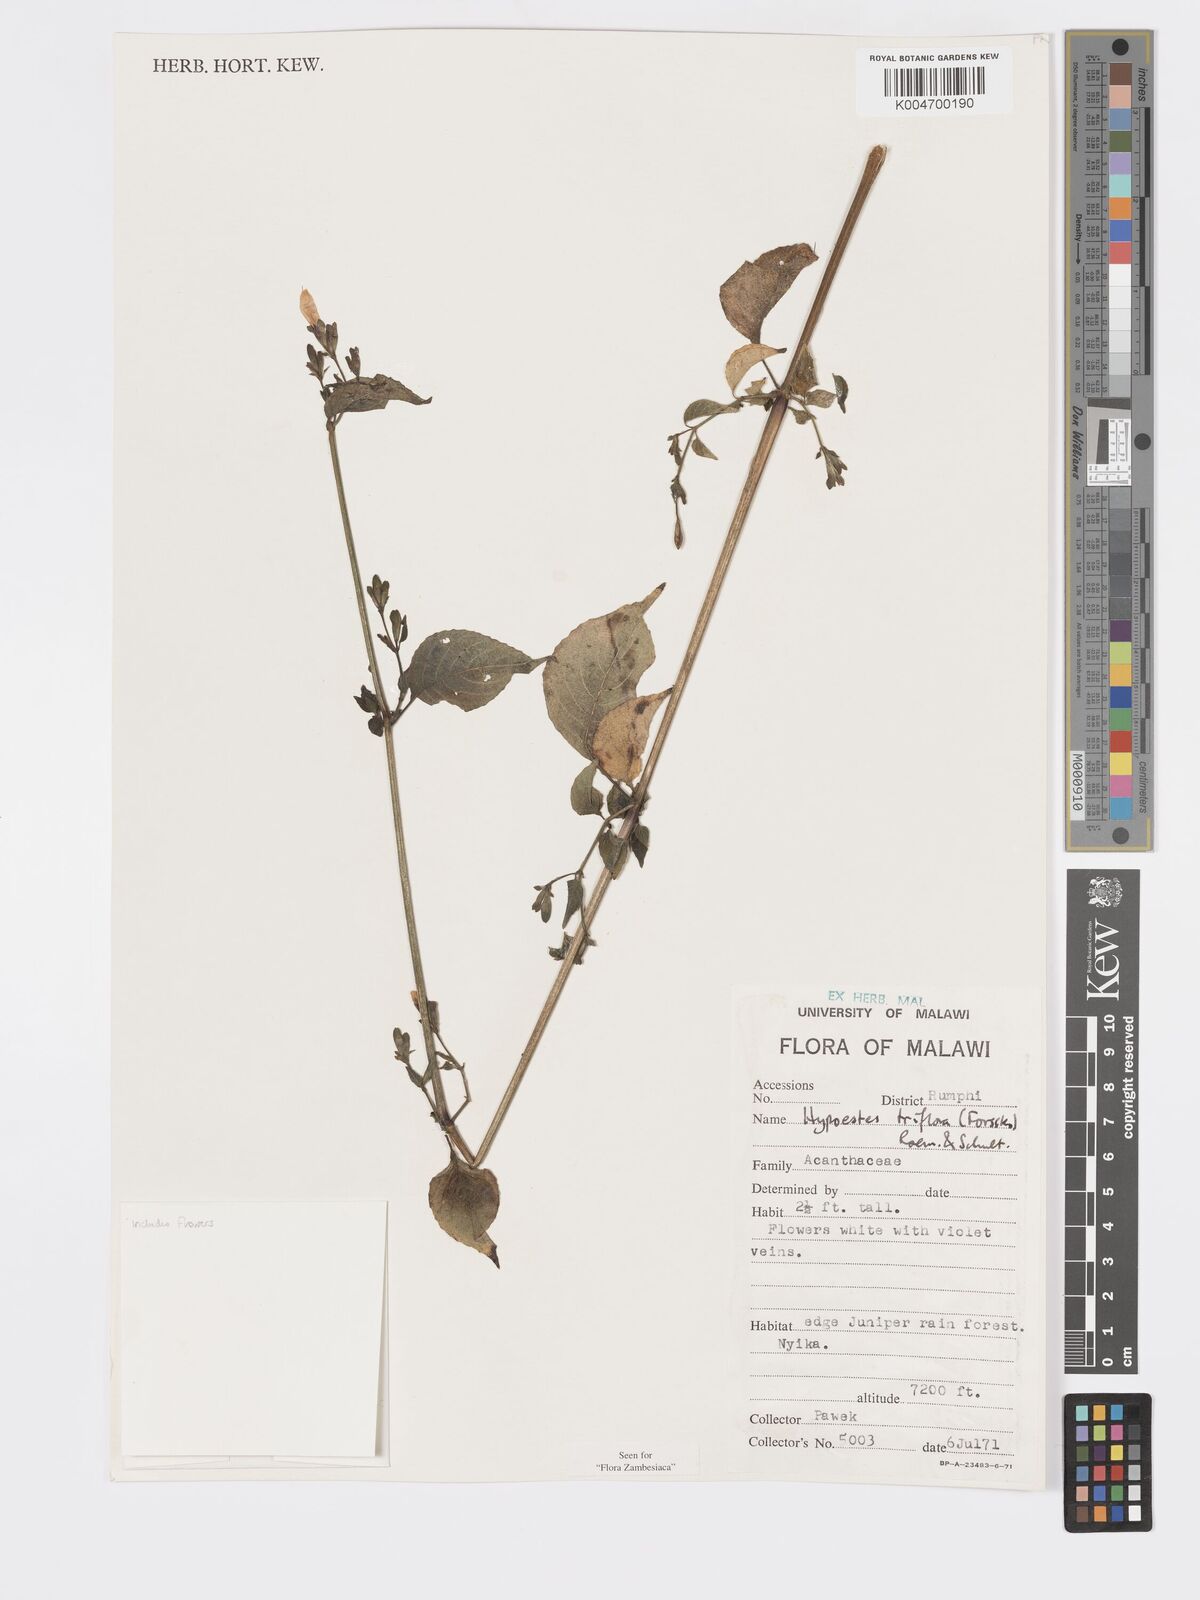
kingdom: Plantae
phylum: Tracheophyta
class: Magnoliopsida
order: Lamiales
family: Acanthaceae
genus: Hypoestes
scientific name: Hypoestes triflora
